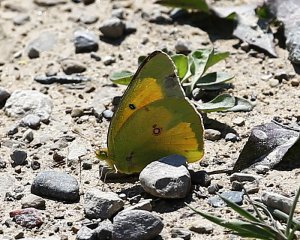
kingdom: Animalia
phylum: Arthropoda
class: Insecta
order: Lepidoptera
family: Pieridae
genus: Colias
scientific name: Colias eurytheme
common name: Orange Sulphur
